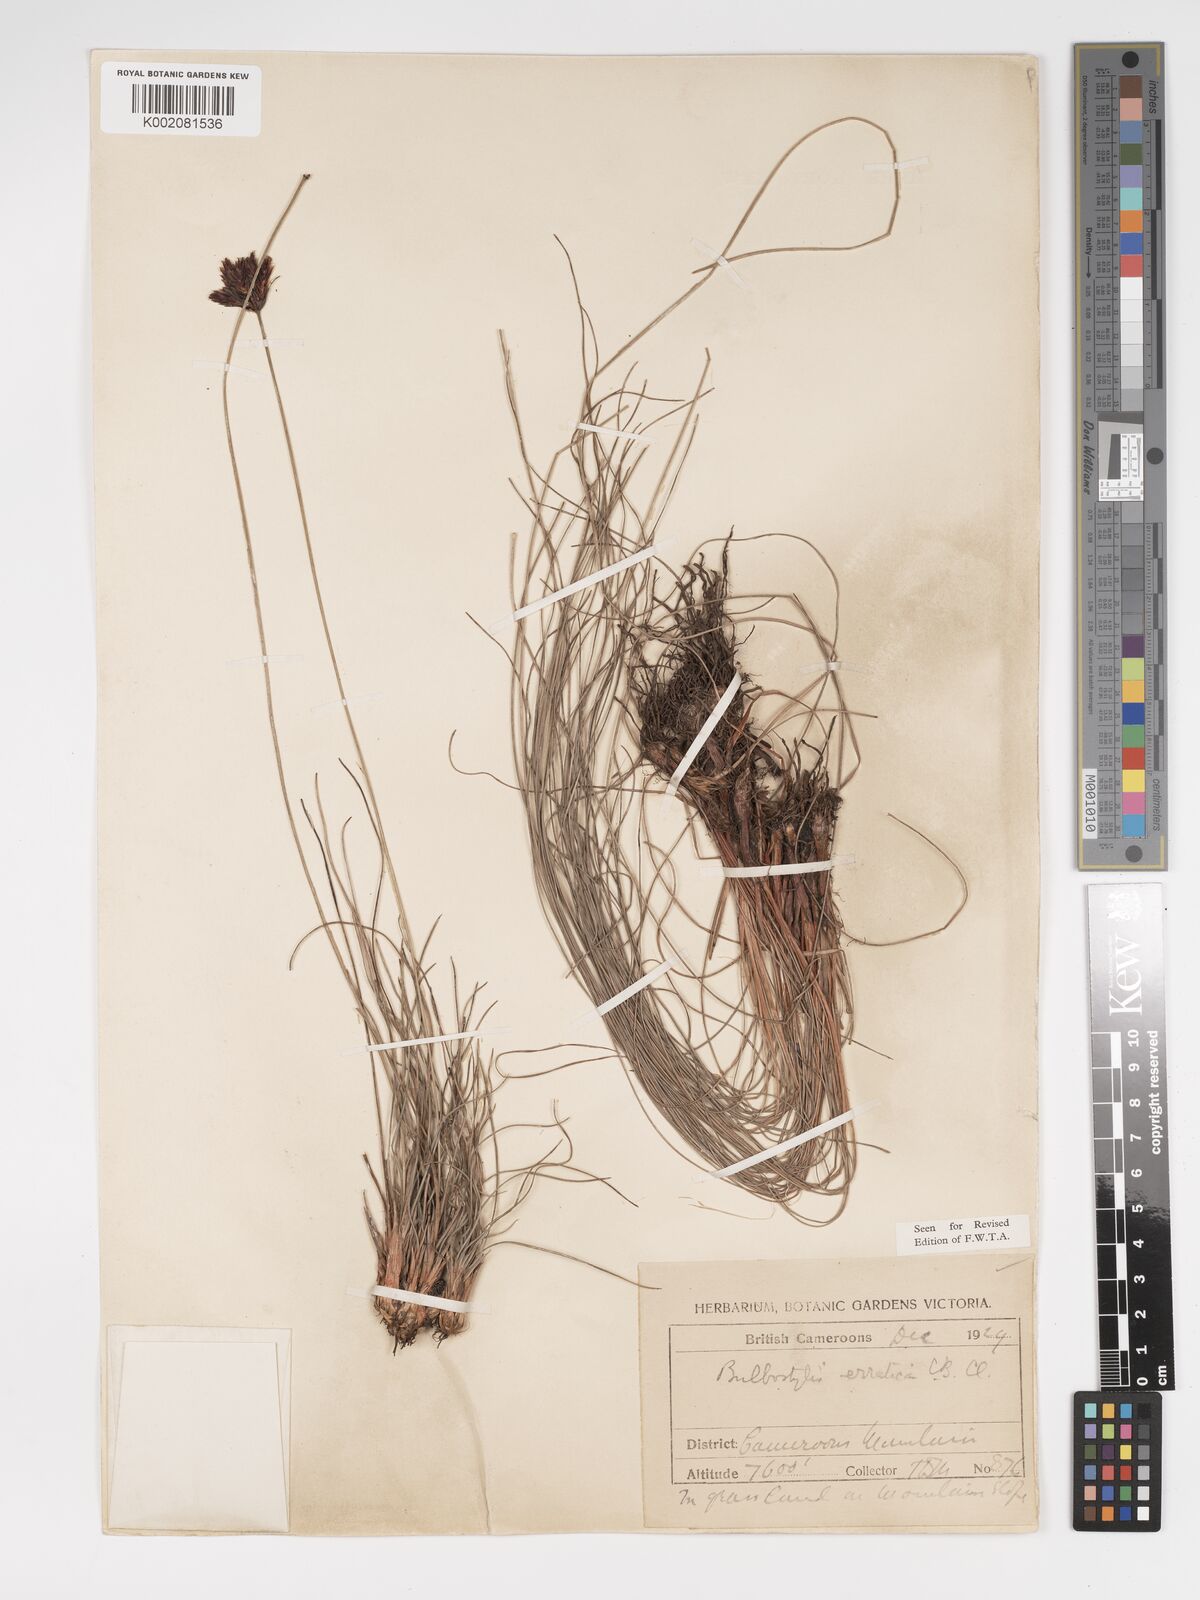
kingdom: Plantae
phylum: Tracheophyta
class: Liliopsida
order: Poales
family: Cyperaceae
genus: Bulbostylis
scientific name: Bulbostylis schoenoides
